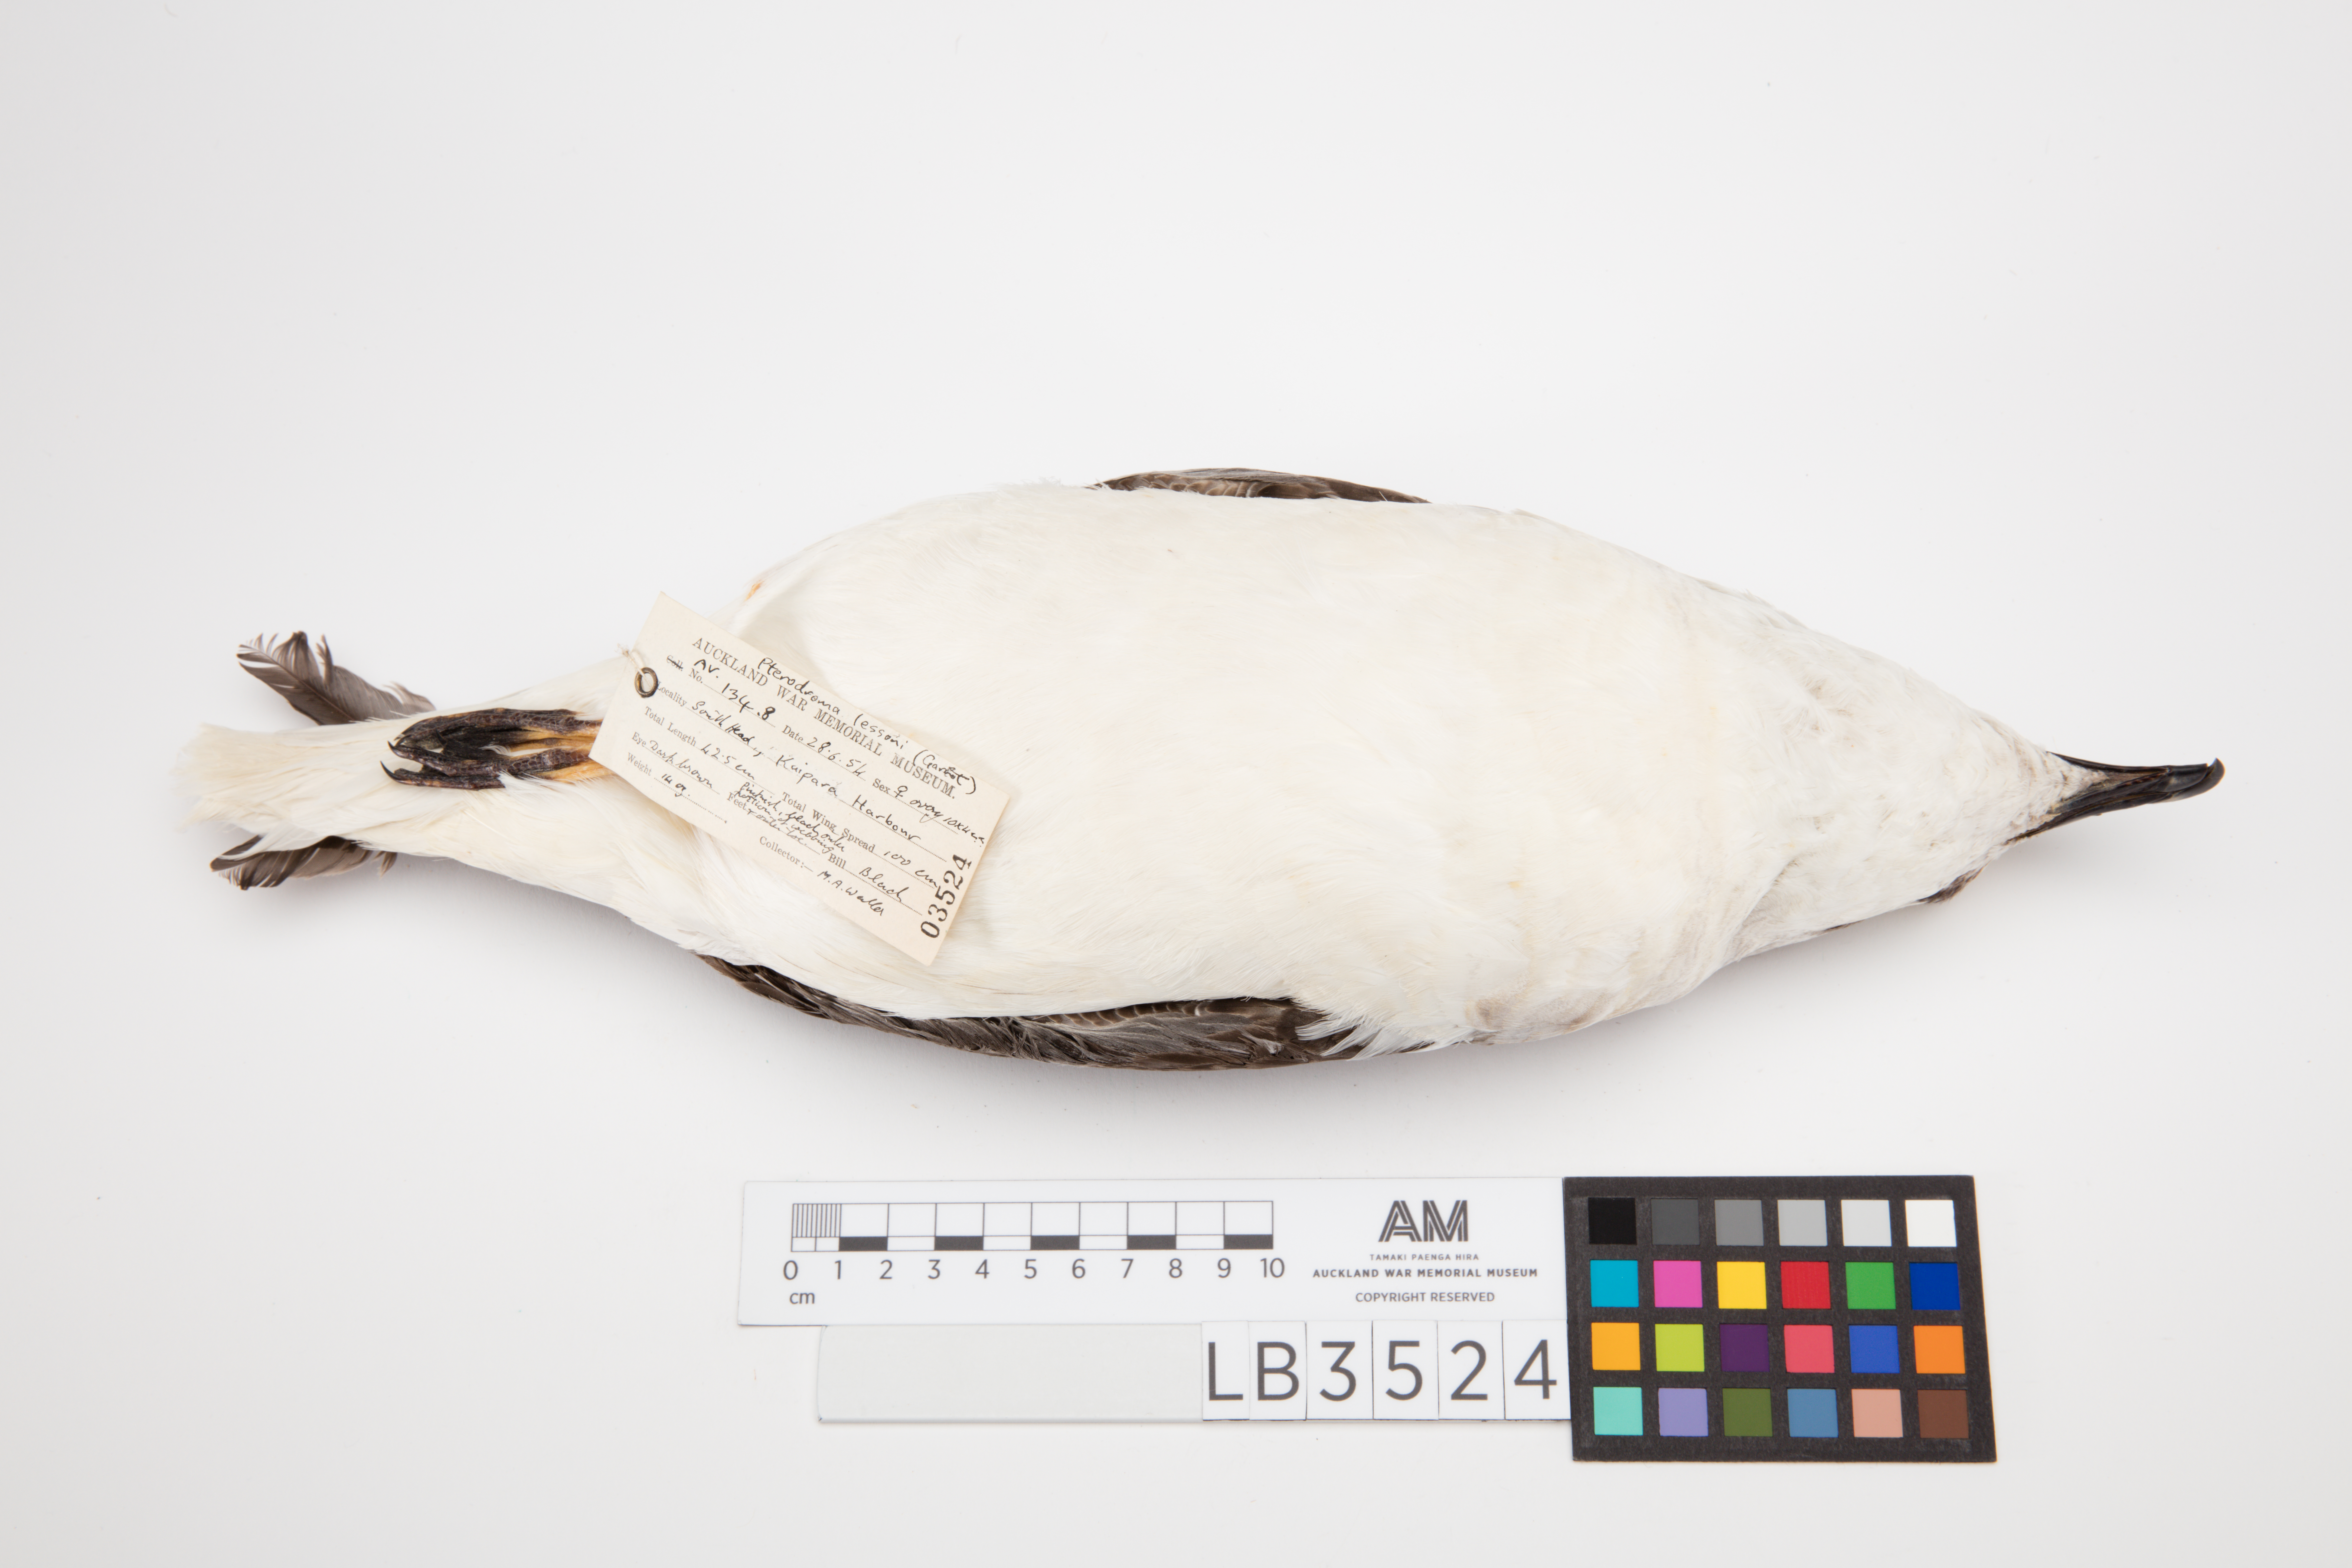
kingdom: Animalia
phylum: Chordata
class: Aves
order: Procellariiformes
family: Procellariidae
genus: Pterodroma
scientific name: Pterodroma lessonii
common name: White-headed petrel
